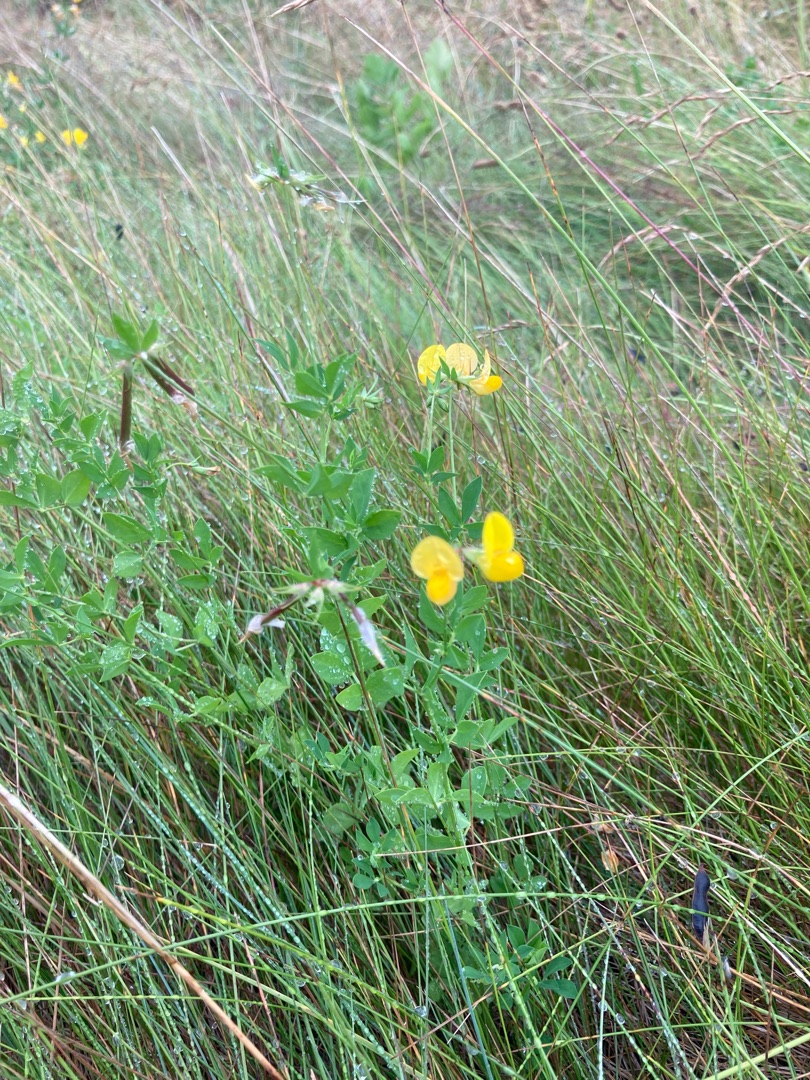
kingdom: Plantae
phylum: Tracheophyta
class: Magnoliopsida
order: Fabales
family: Fabaceae
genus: Lotus
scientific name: Lotus corniculatus
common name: Almindelig kællingetand
